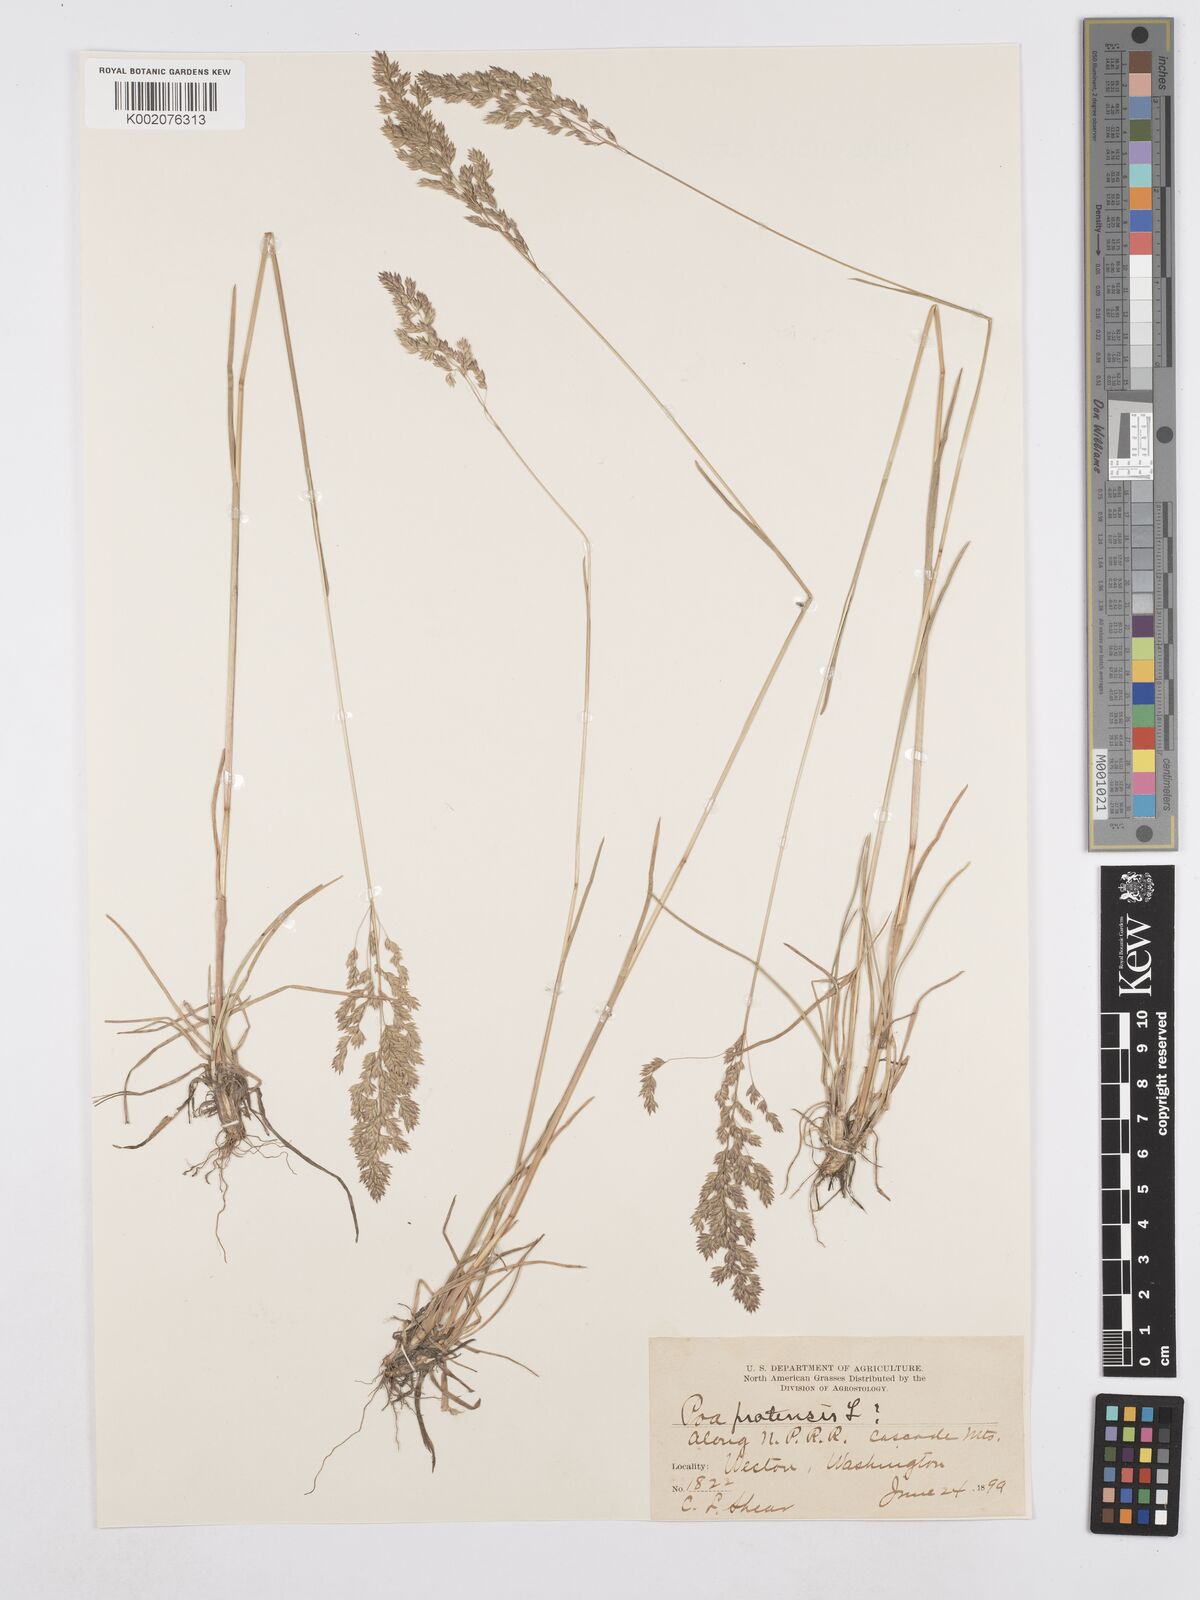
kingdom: Plantae
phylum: Tracheophyta
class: Liliopsida
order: Poales
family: Poaceae
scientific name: Poaceae
